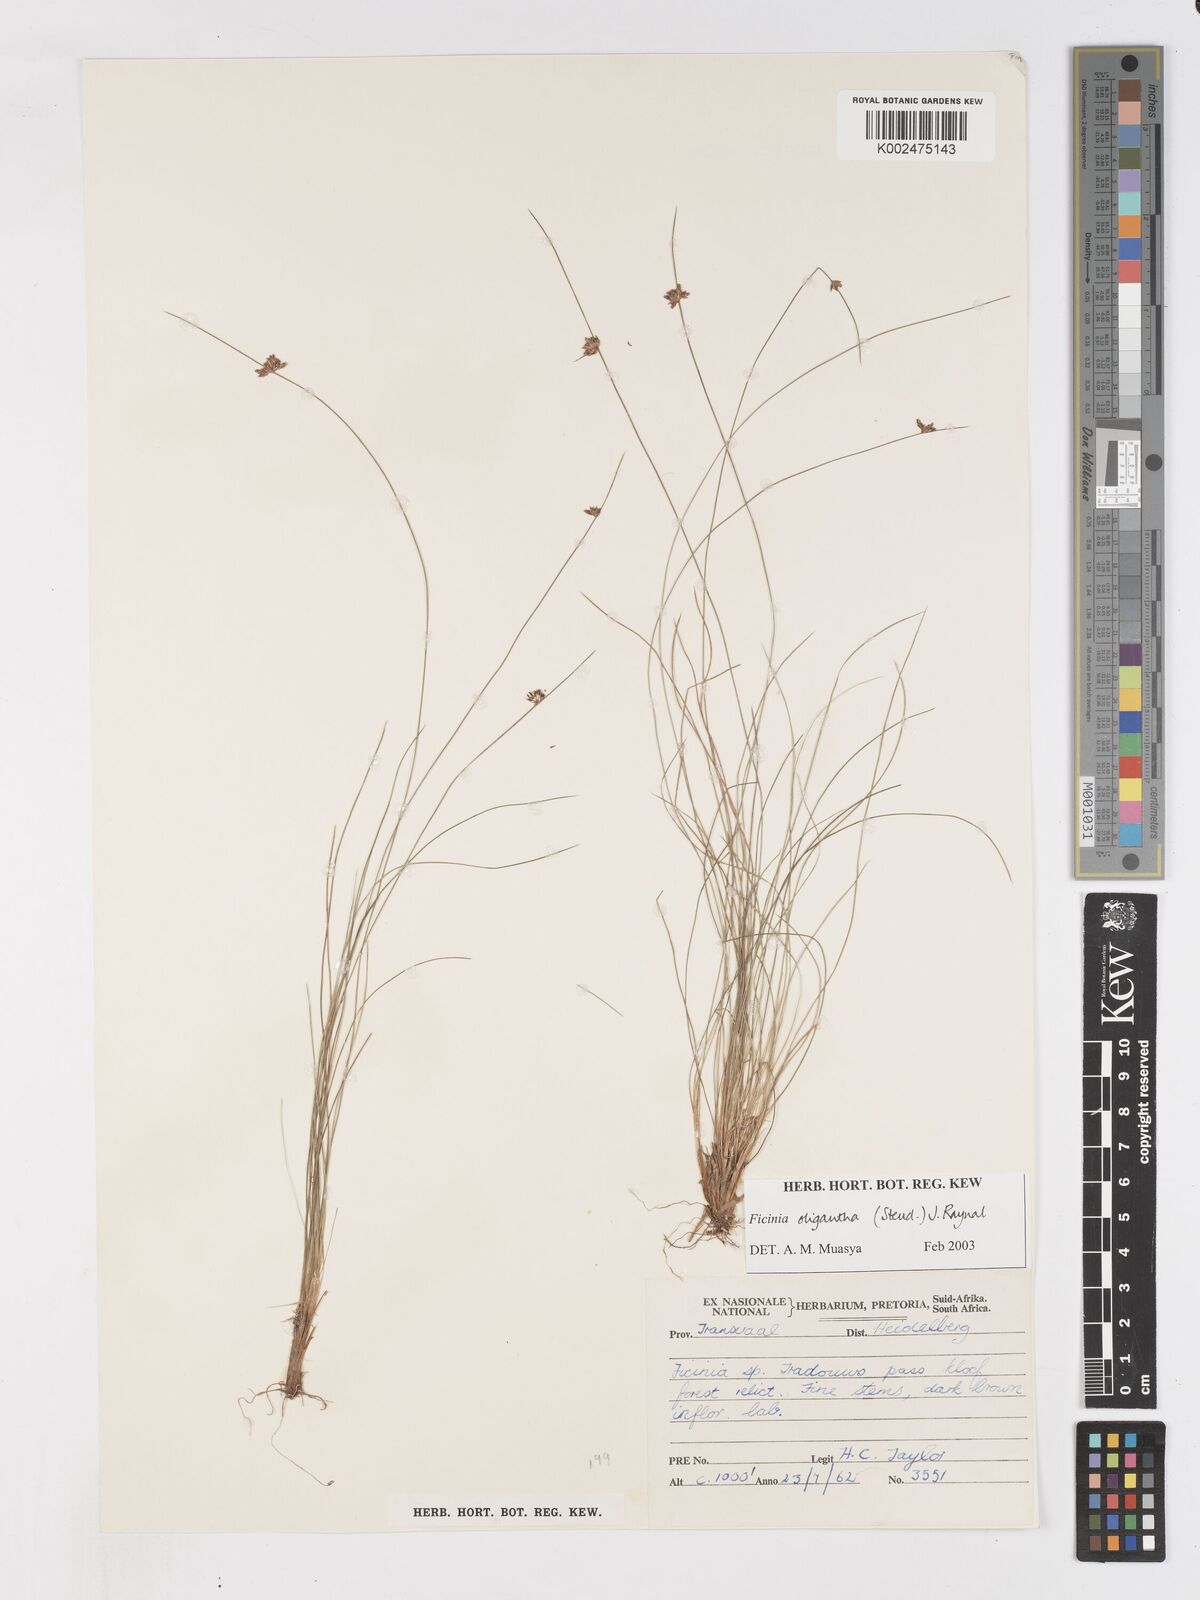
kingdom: Plantae
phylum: Tracheophyta
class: Liliopsida
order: Poales
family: Cyperaceae
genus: Ficinia
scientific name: Ficinia stolonifera
